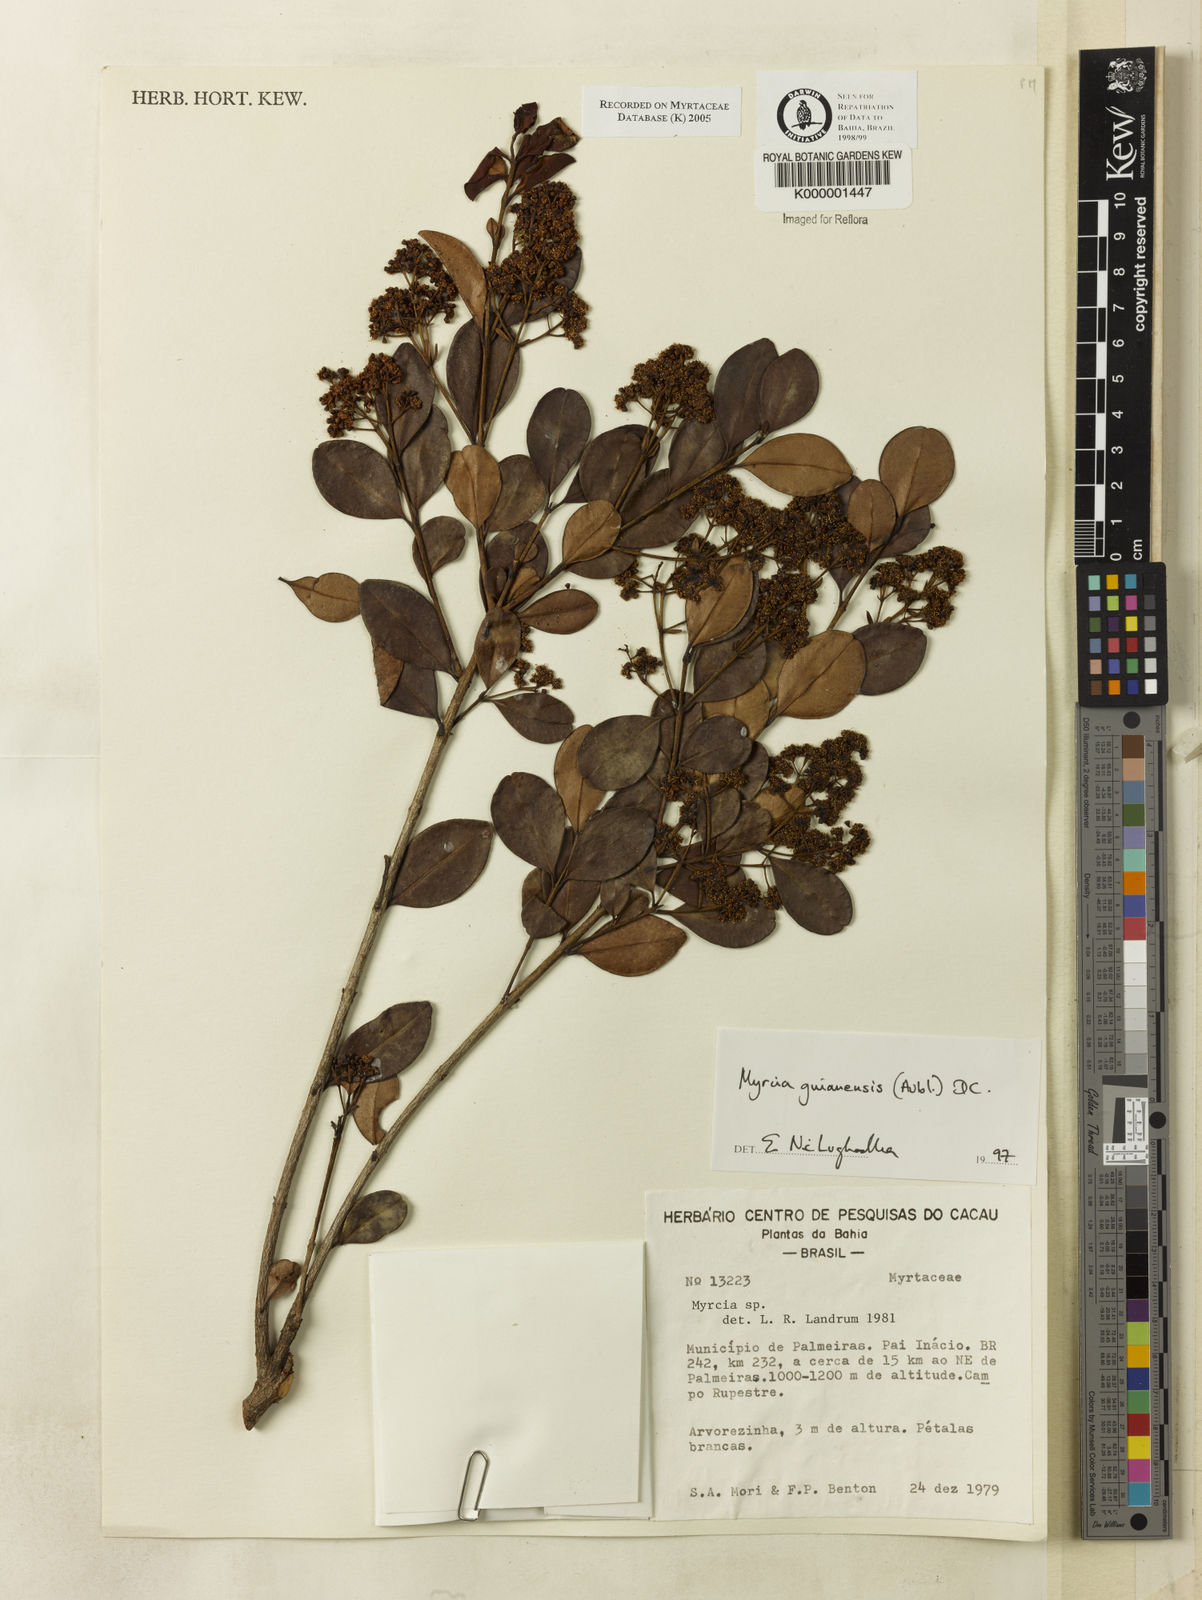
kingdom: Plantae
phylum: Tracheophyta
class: Magnoliopsida
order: Myrtales
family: Myrtaceae
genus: Myrcia
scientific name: Myrcia guianensis
